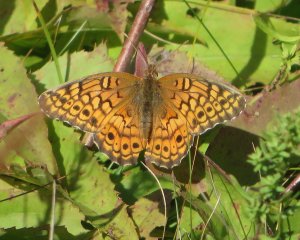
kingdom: Animalia
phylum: Arthropoda
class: Insecta
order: Lepidoptera
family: Nymphalidae
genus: Euptoieta
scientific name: Euptoieta claudia
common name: Variegated Fritillary
